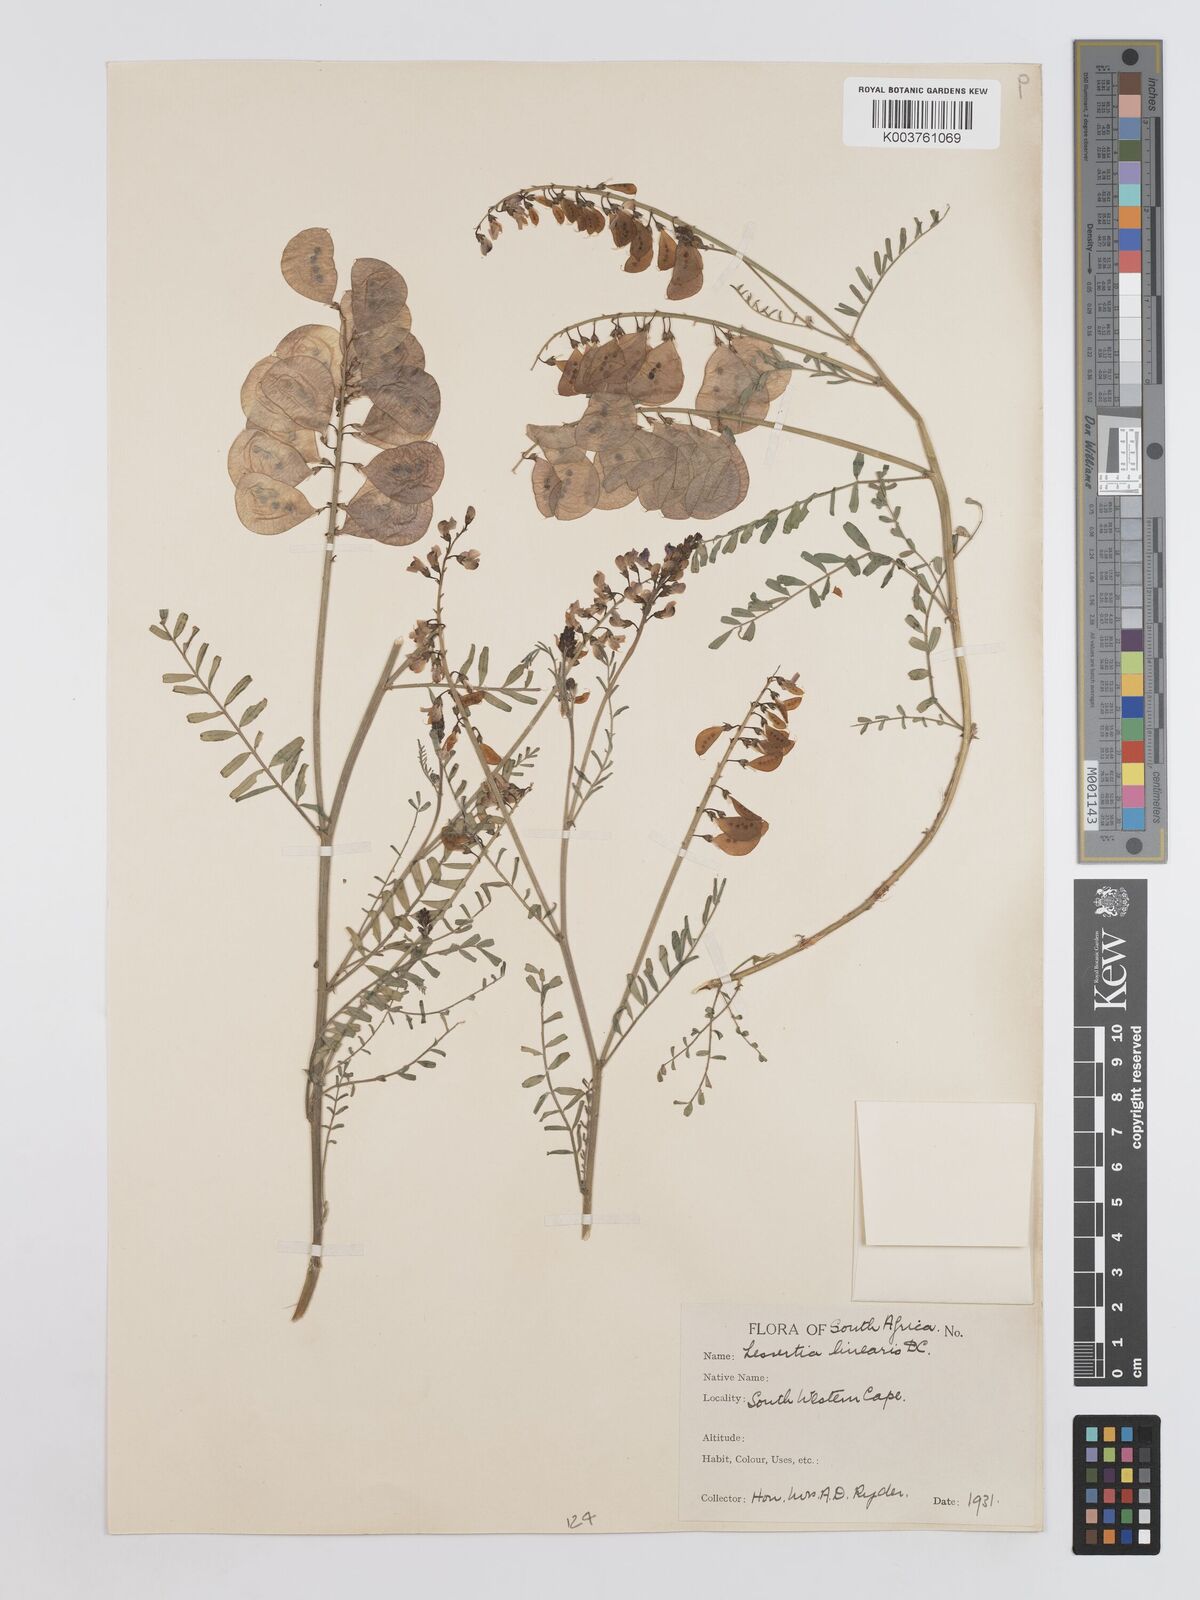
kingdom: Plantae
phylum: Tracheophyta
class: Magnoliopsida
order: Fabales
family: Fabaceae
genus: Lessertia
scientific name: Lessertia herbacea
